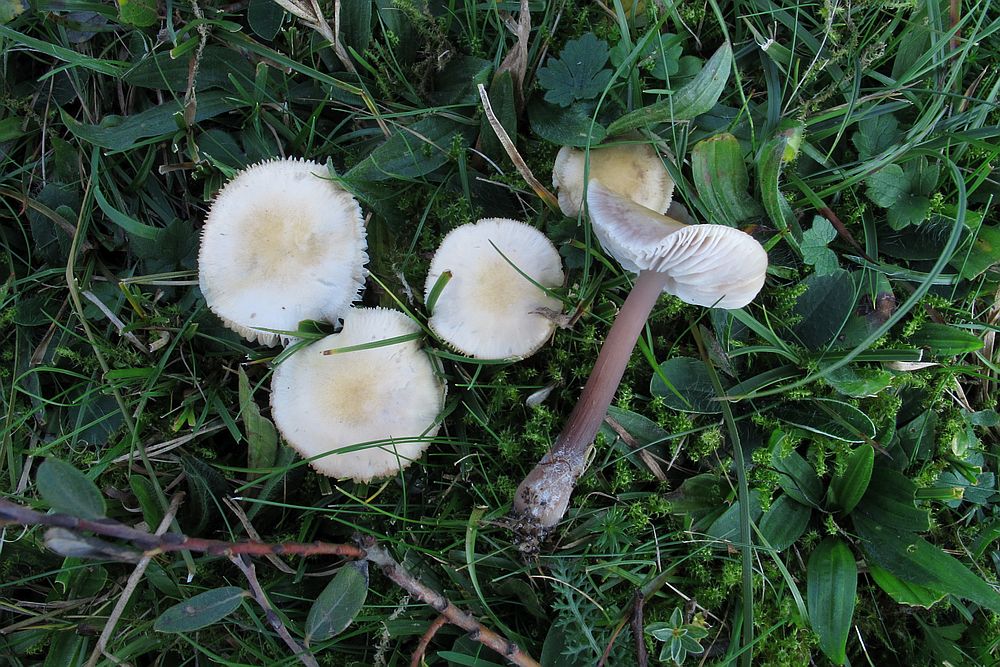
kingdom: Fungi
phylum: Basidiomycota
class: Agaricomycetes
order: Agaricales
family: Mycenaceae
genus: Mycena
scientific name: Mycena luteovariegata
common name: lillagul huesvamp
